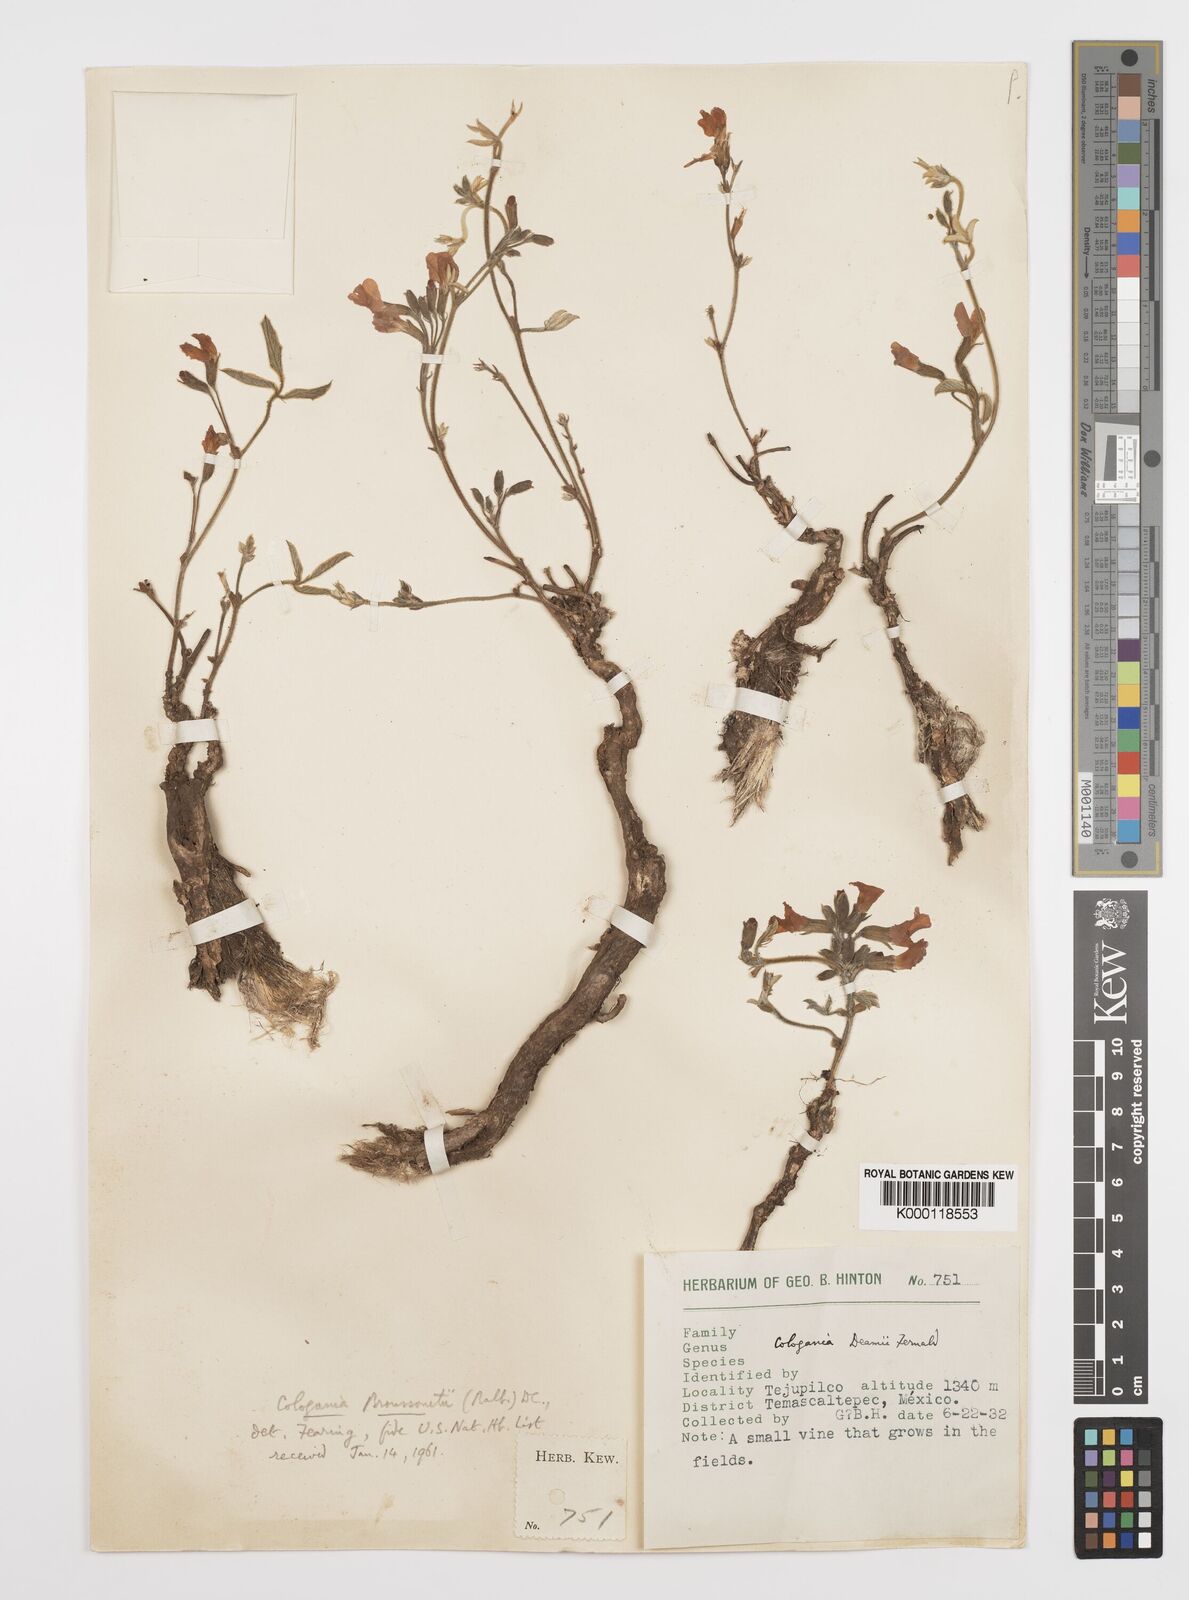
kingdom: Plantae
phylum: Tracheophyta
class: Magnoliopsida
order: Fabales
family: Fabaceae
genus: Cologania
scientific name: Cologania broussonetii
